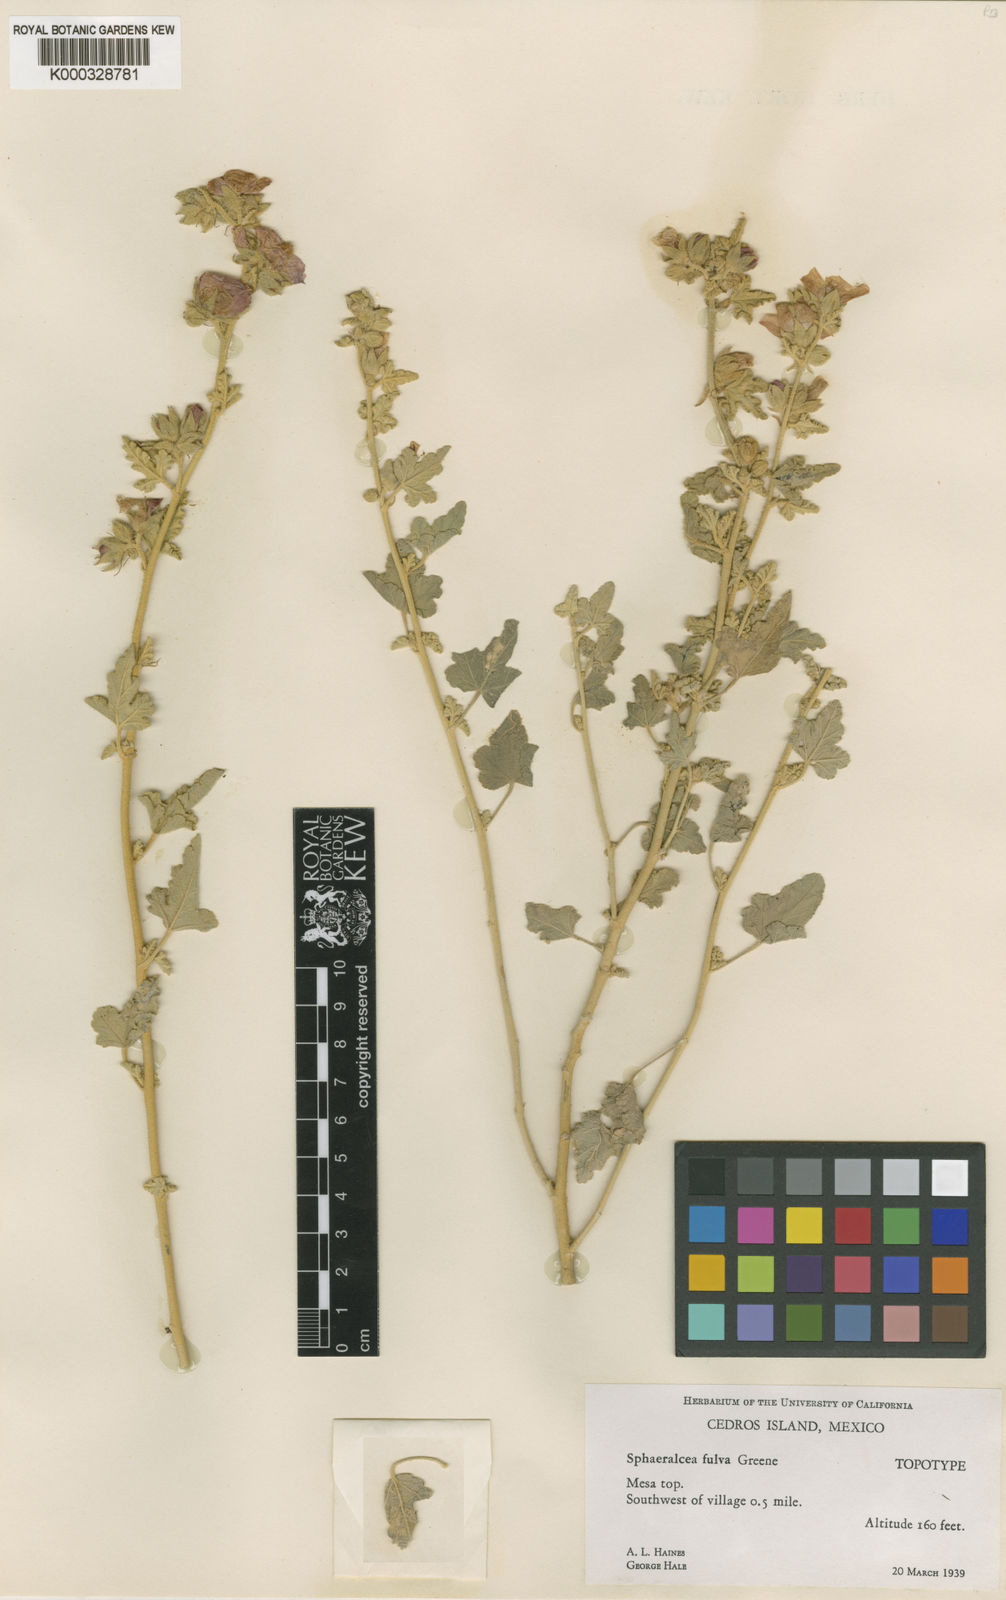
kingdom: Plantae
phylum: Tracheophyta
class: Magnoliopsida
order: Malvales
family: Malvaceae
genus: Sphaeralcea
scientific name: Sphaeralcea fulva
